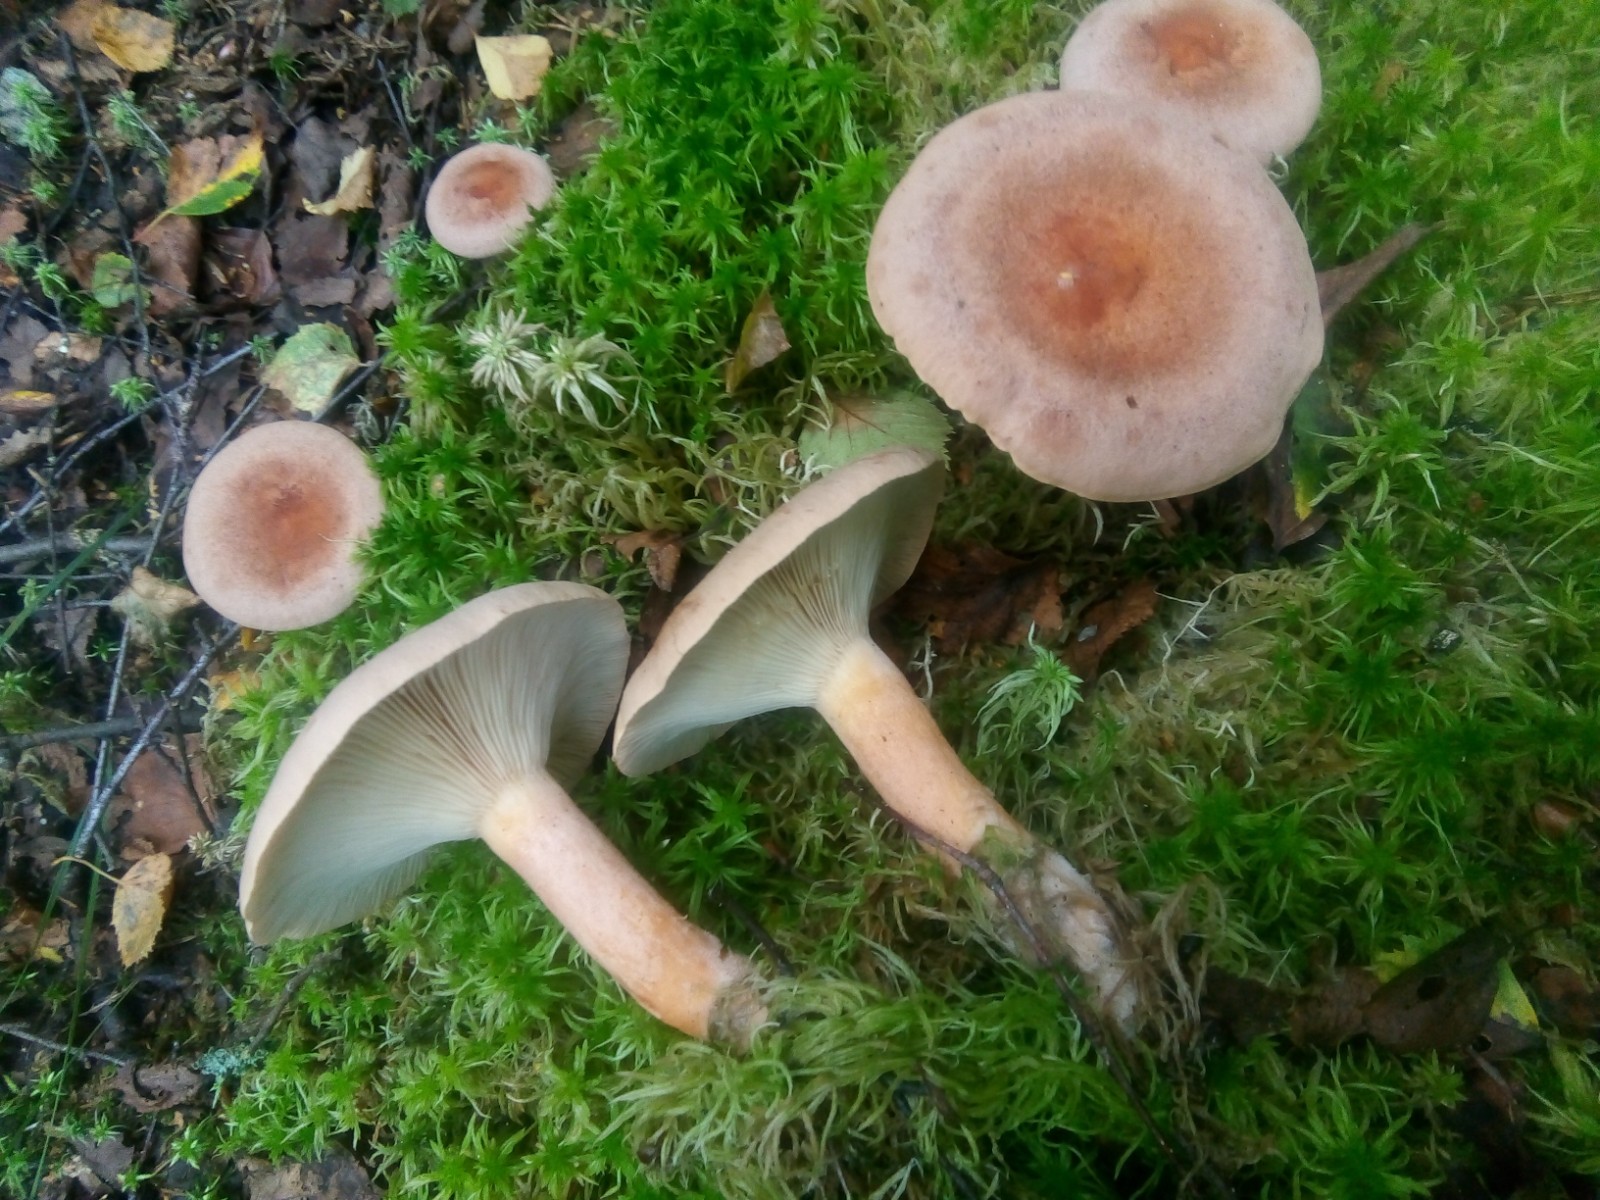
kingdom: Fungi
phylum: Basidiomycota
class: Agaricomycetes
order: Russulales
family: Russulaceae
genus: Lactarius
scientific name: Lactarius helvus
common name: mose-mælkehat
